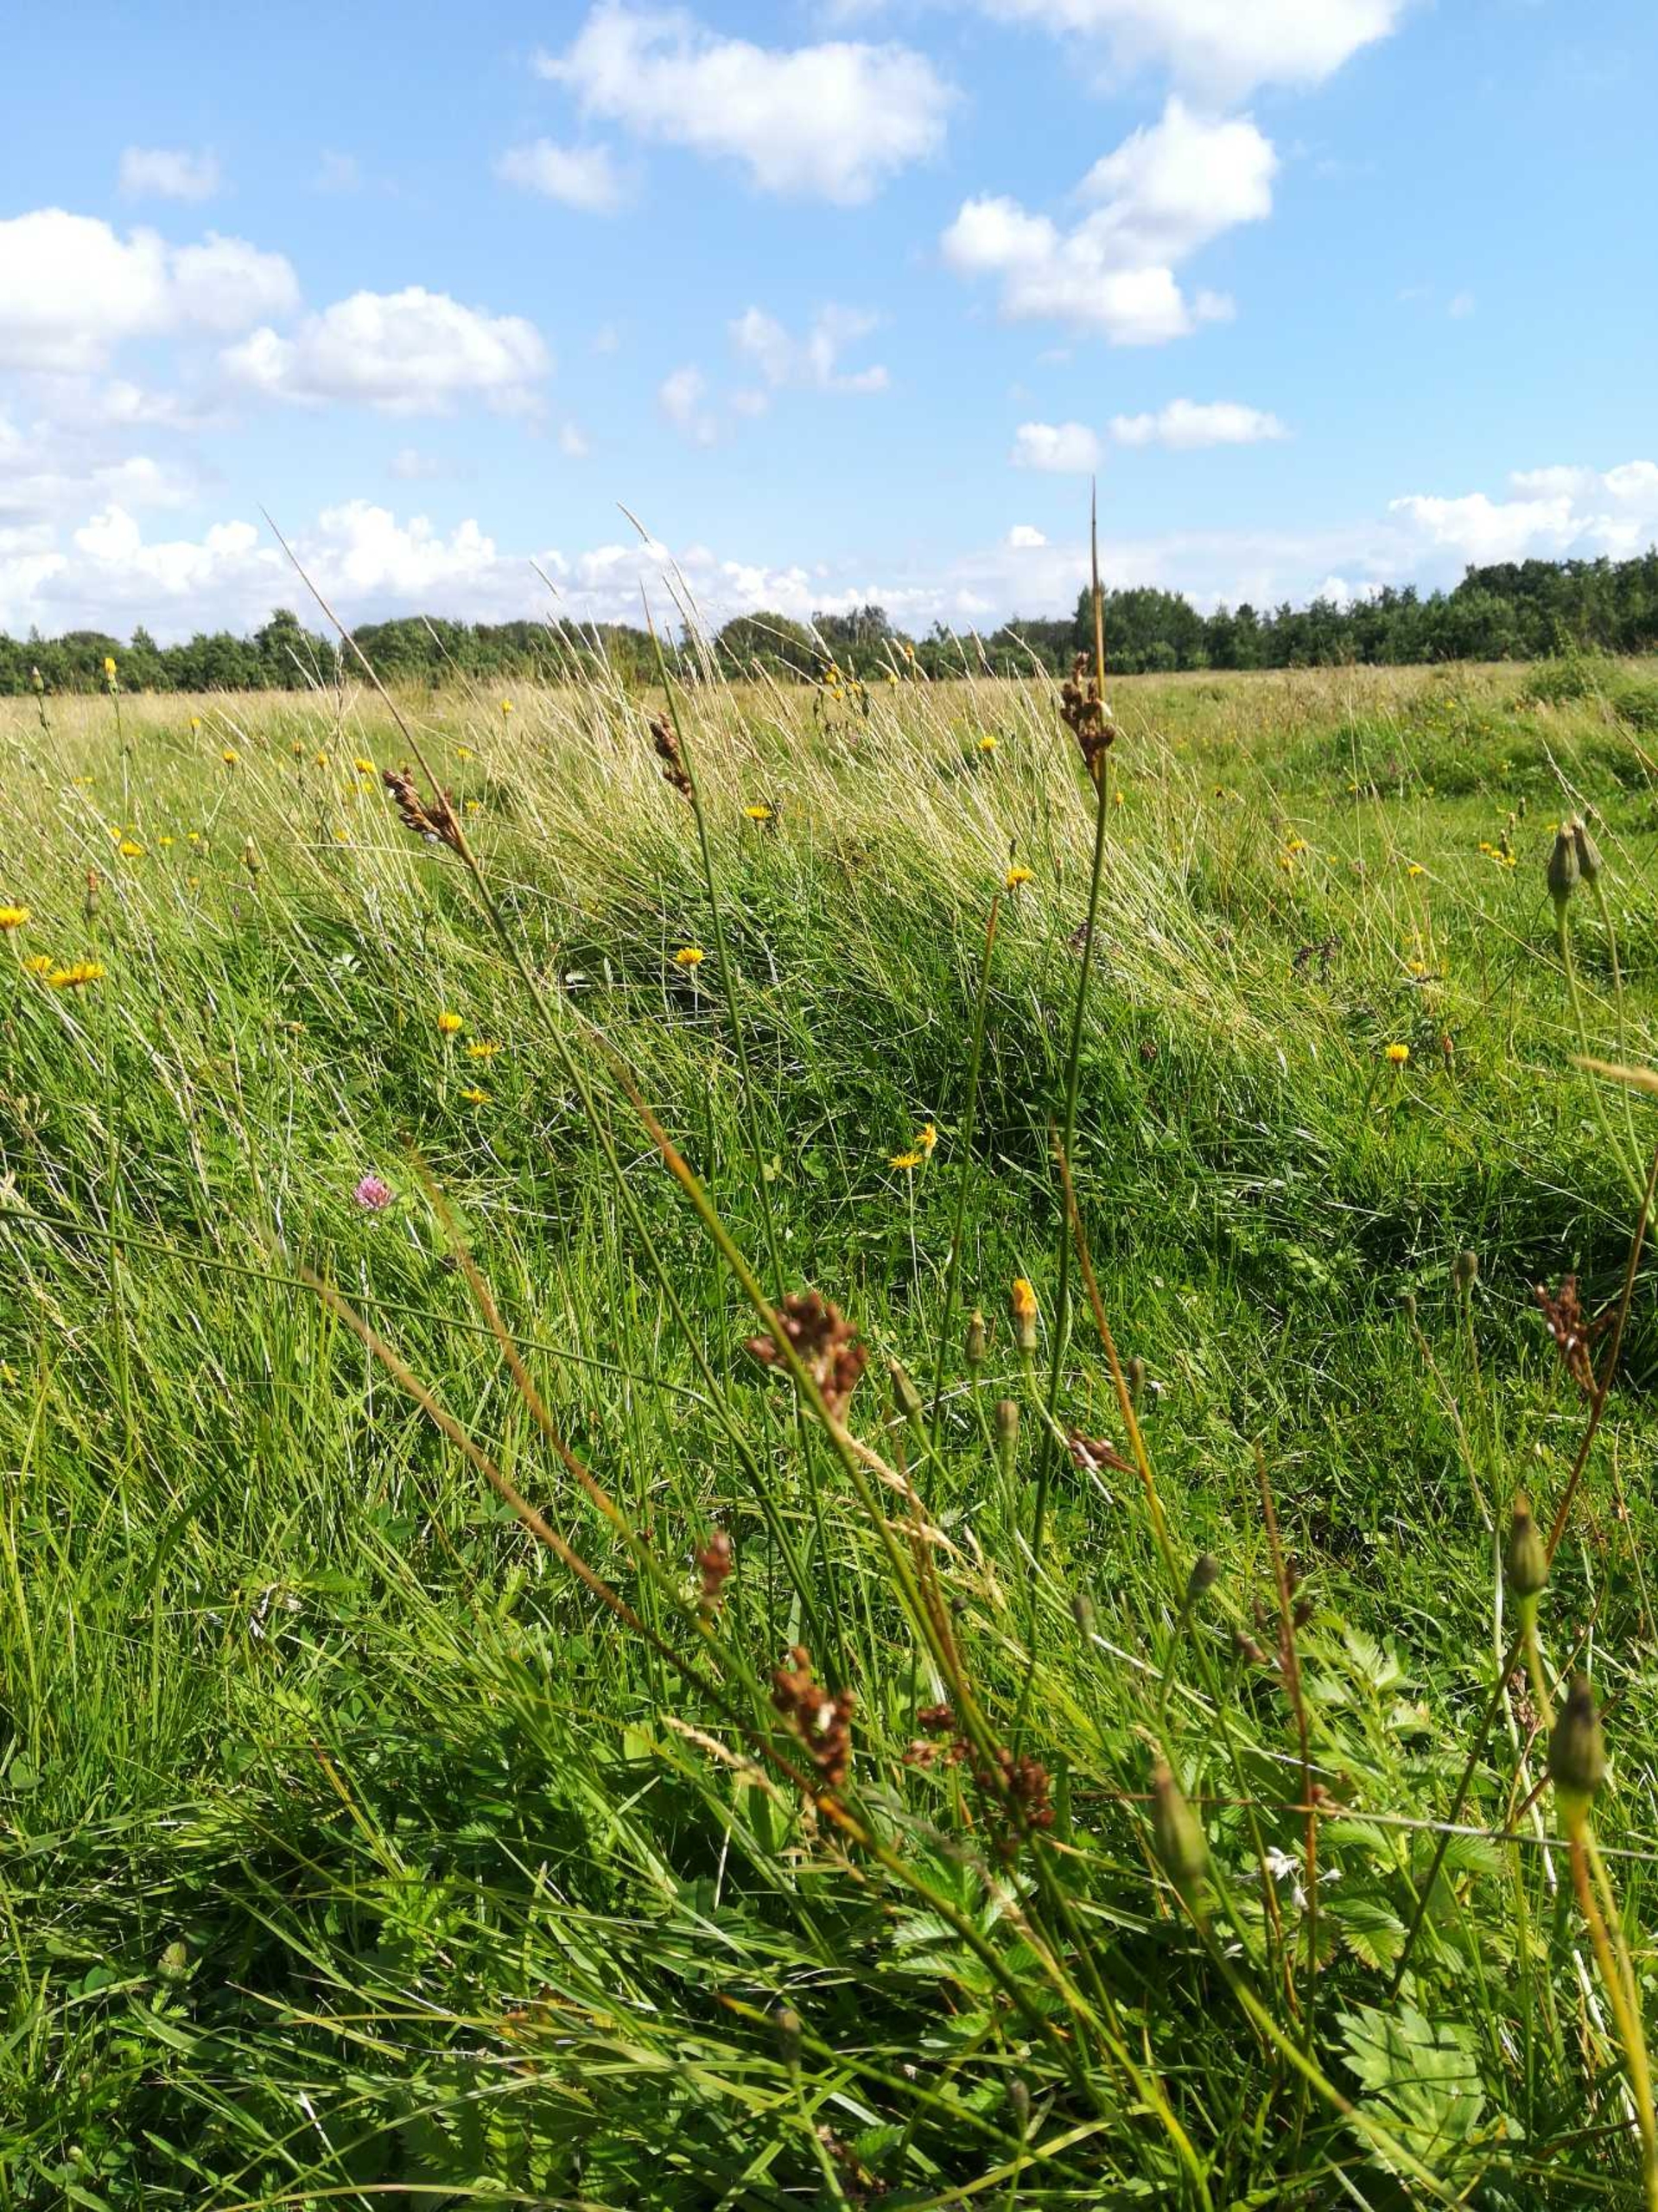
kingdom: Plantae
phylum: Tracheophyta
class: Liliopsida
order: Poales
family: Juncaceae
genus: Juncus
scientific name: Juncus balticus
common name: Klit-siv
